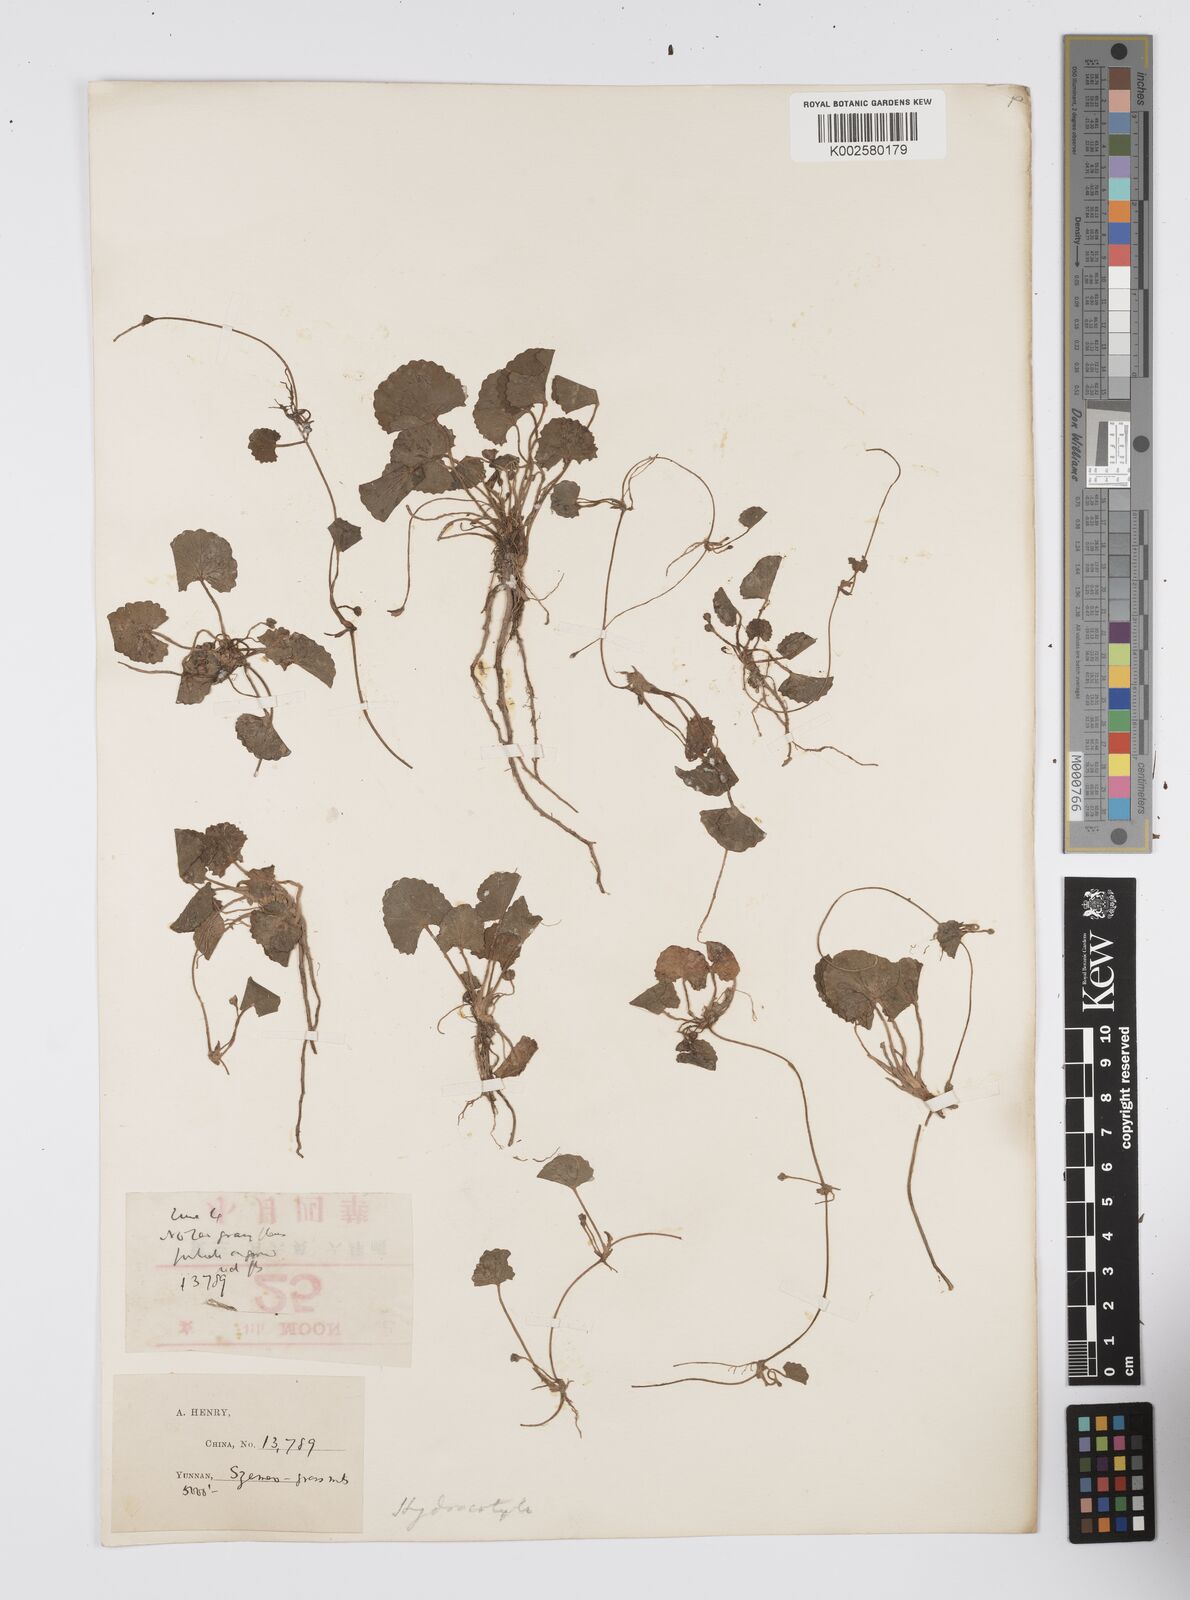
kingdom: Plantae
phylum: Tracheophyta
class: Magnoliopsida
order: Apiales
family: Apiaceae
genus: Centella
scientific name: Centella asiatica
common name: Spadeleaf
